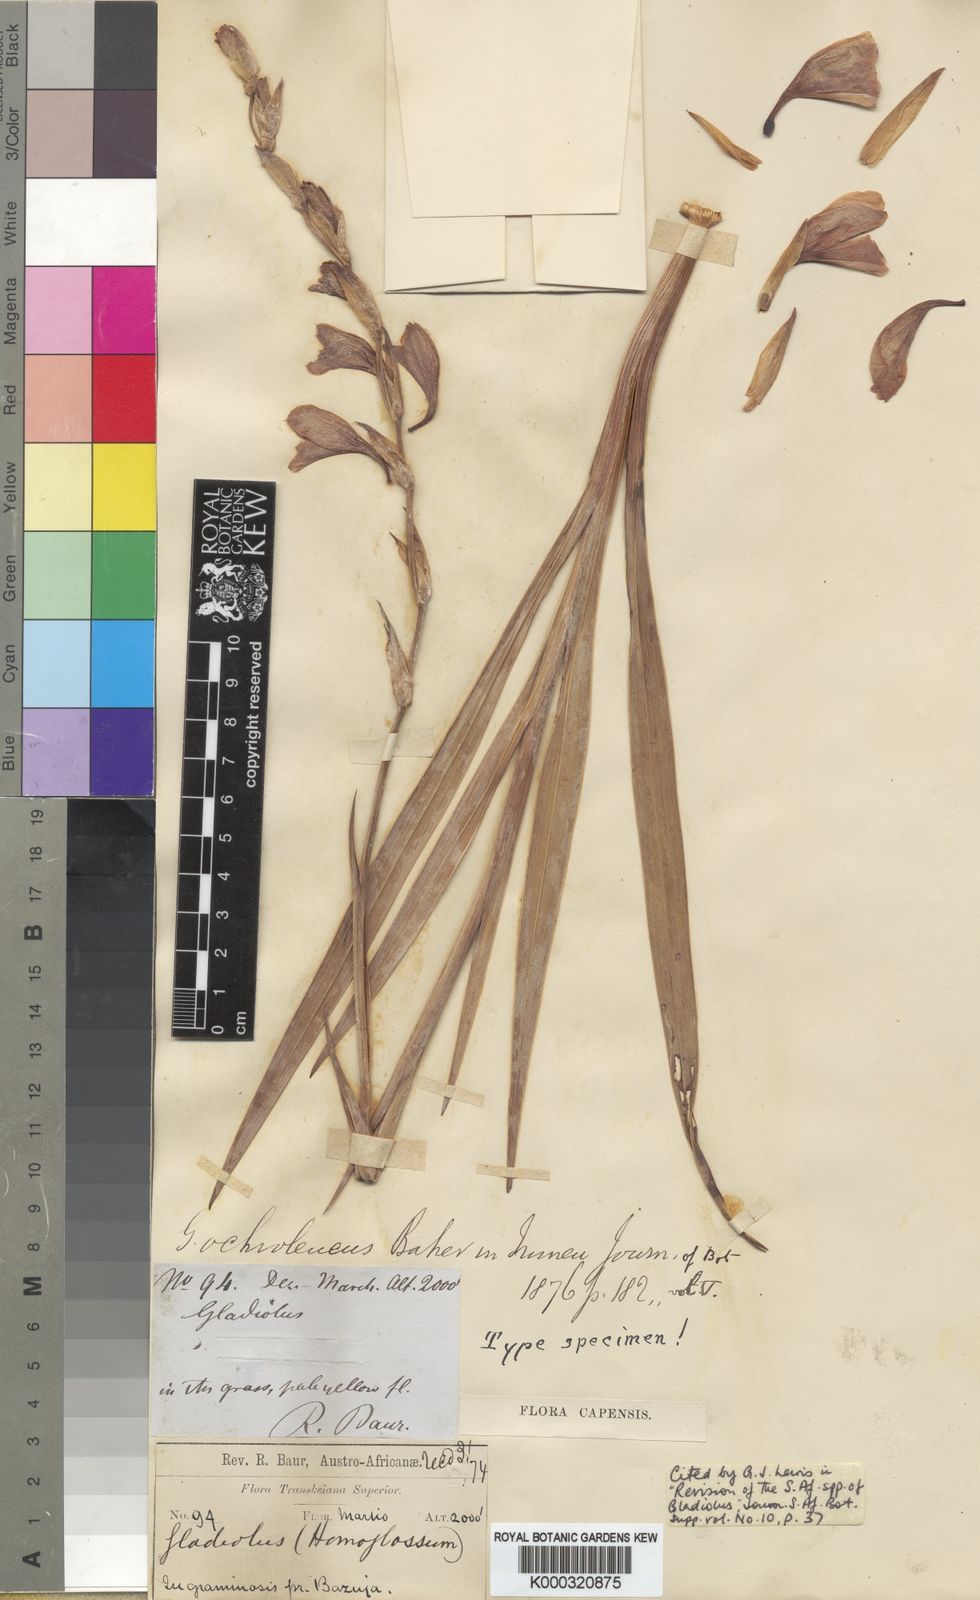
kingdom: Plantae
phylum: Tracheophyta
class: Liliopsida
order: Asparagales
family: Iridaceae
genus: Gladiolus
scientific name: Gladiolus ochroleucus
